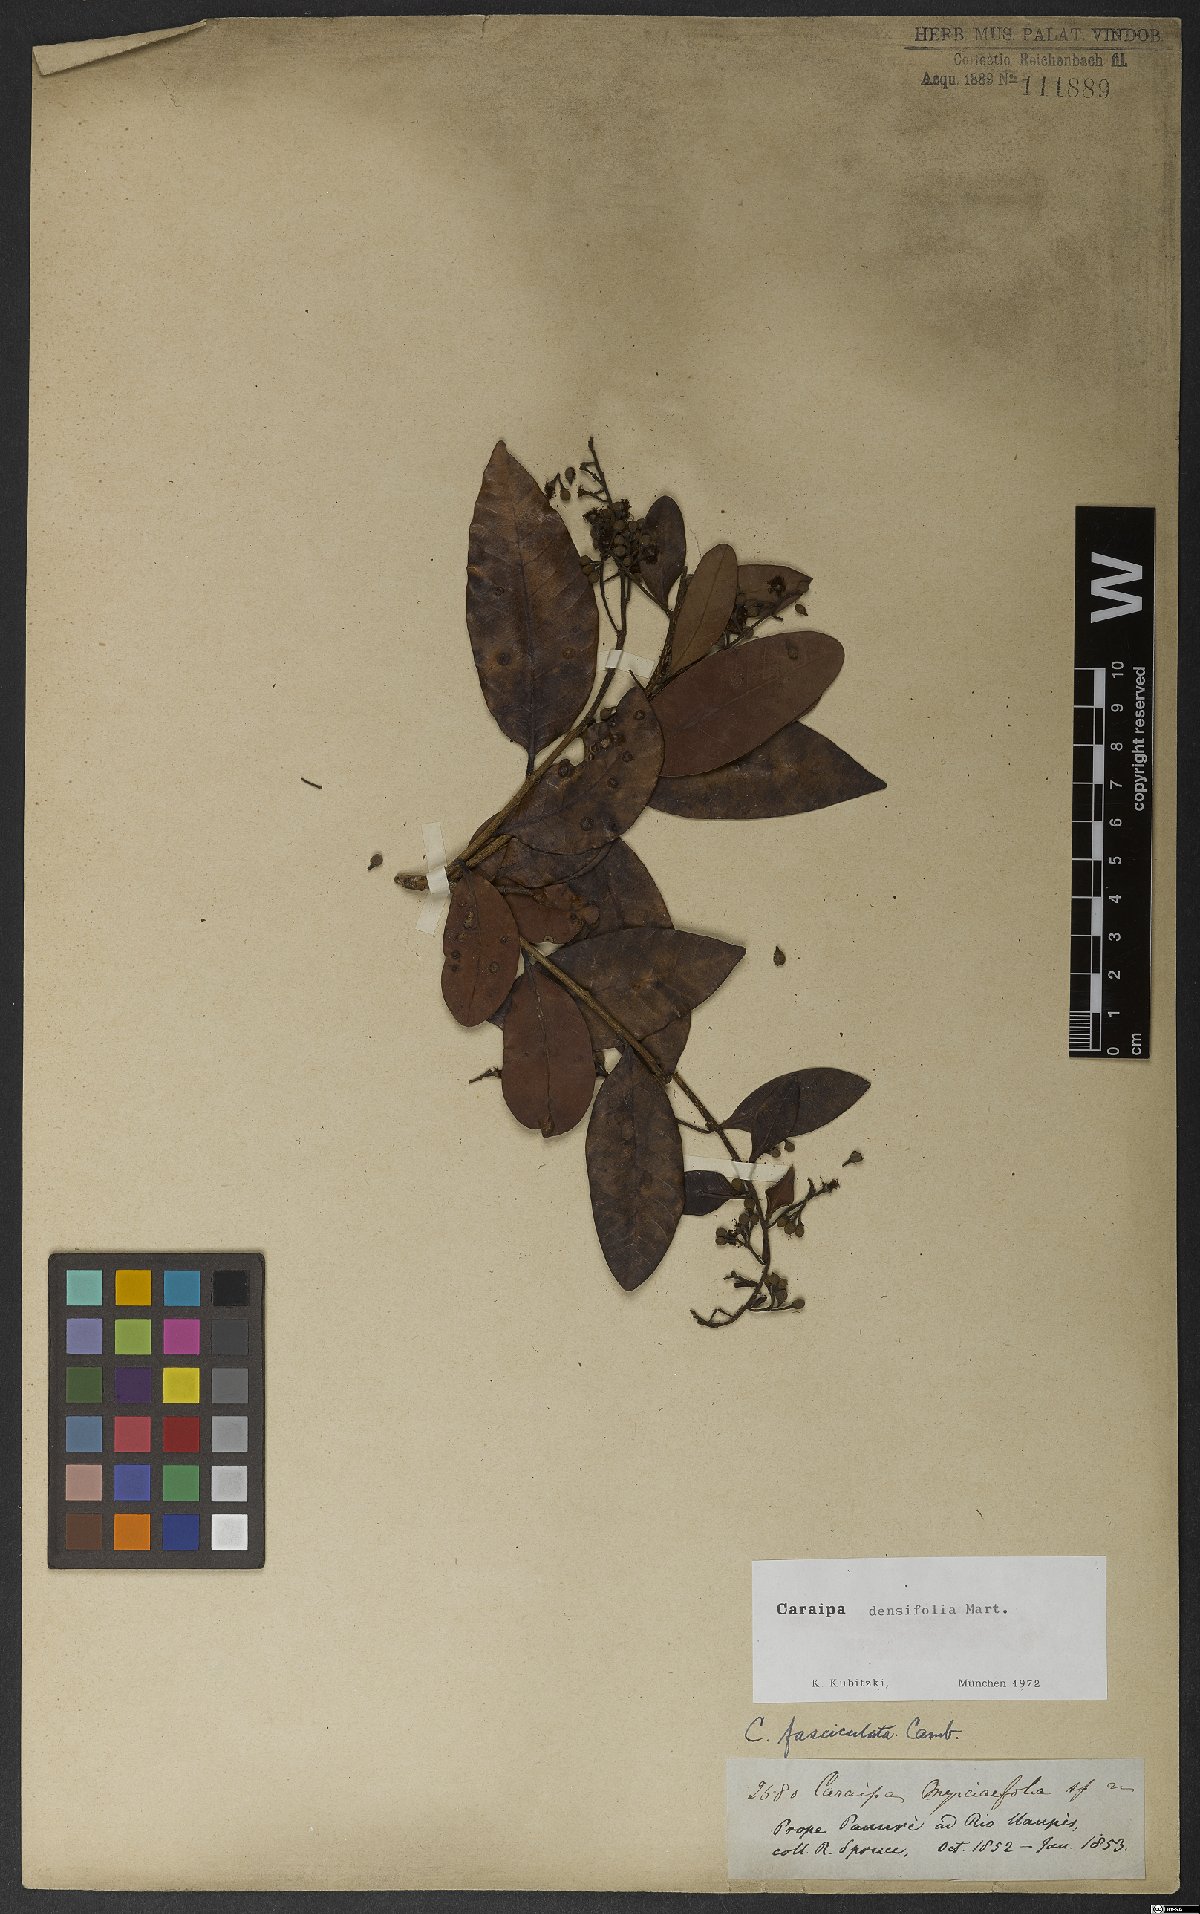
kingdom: Plantae
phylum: Tracheophyta
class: Magnoliopsida
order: Malpighiales
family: Calophyllaceae
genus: Caraipa
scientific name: Caraipa densifolia
